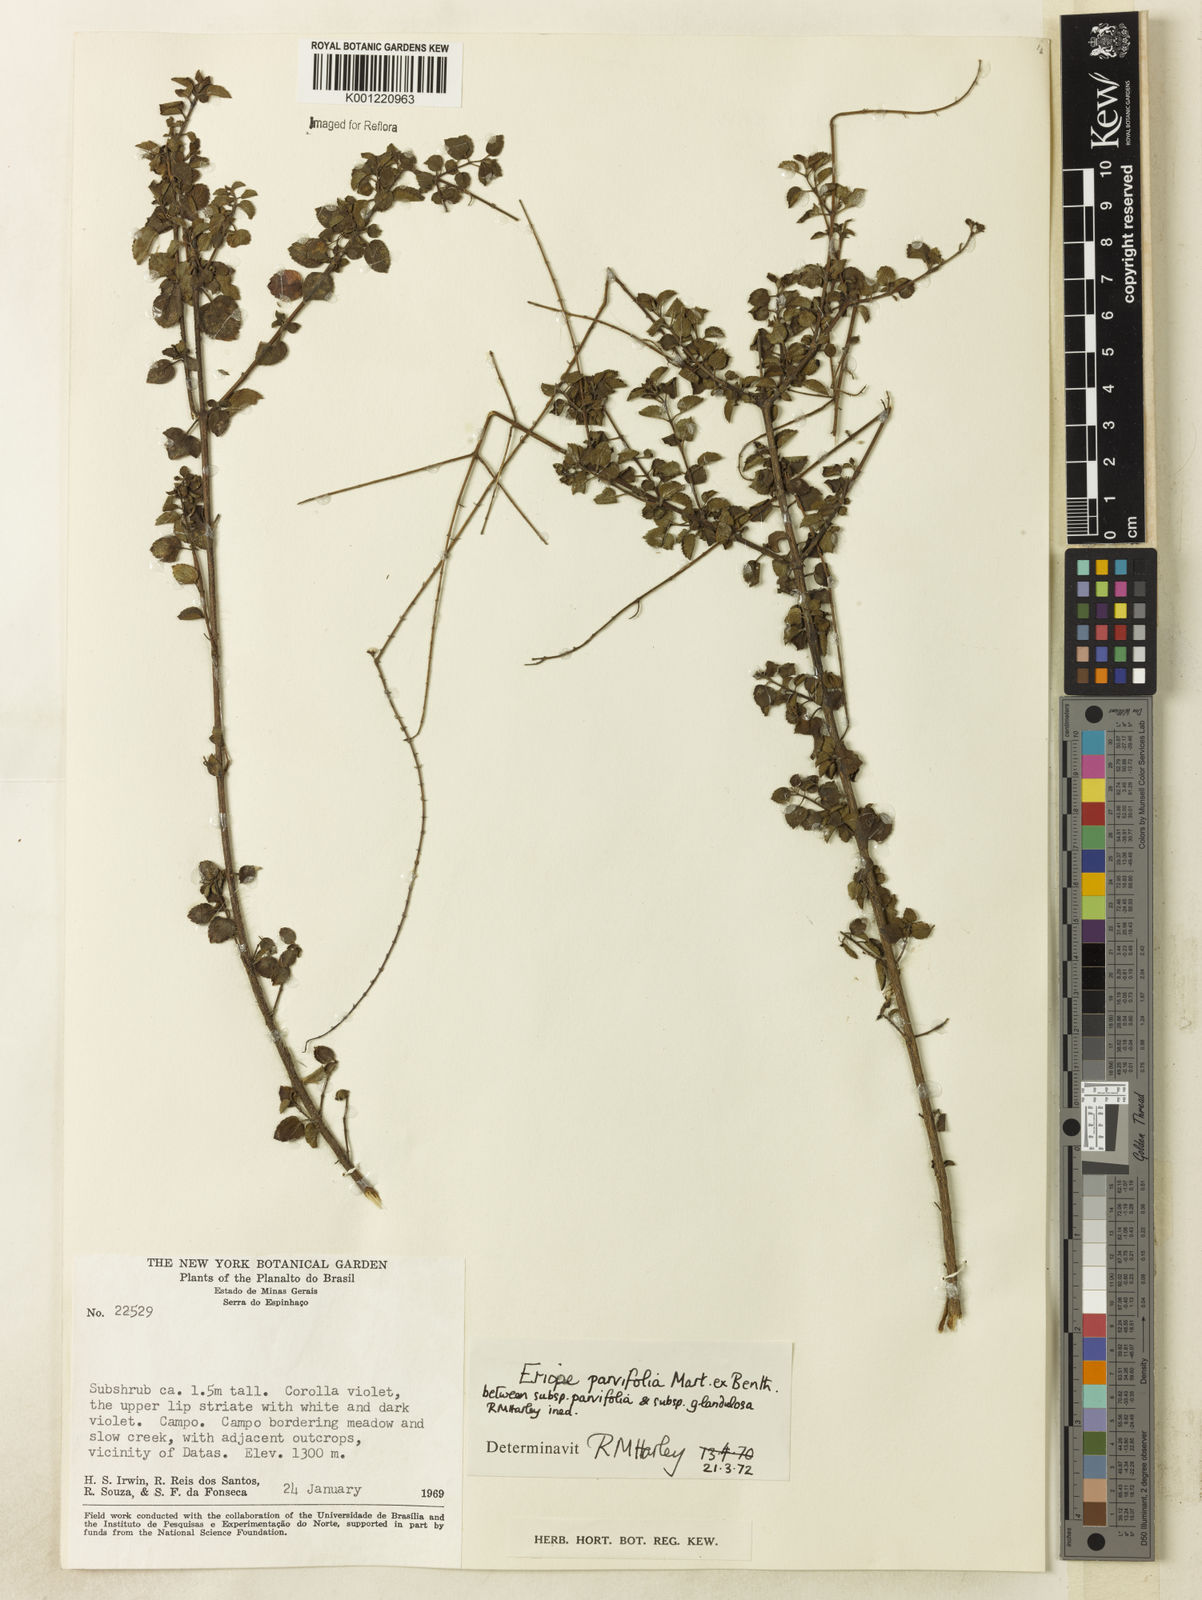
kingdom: Plantae
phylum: Tracheophyta
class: Magnoliopsida
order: Lamiales
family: Lamiaceae
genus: Eriope
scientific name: Eriope glandulosa
